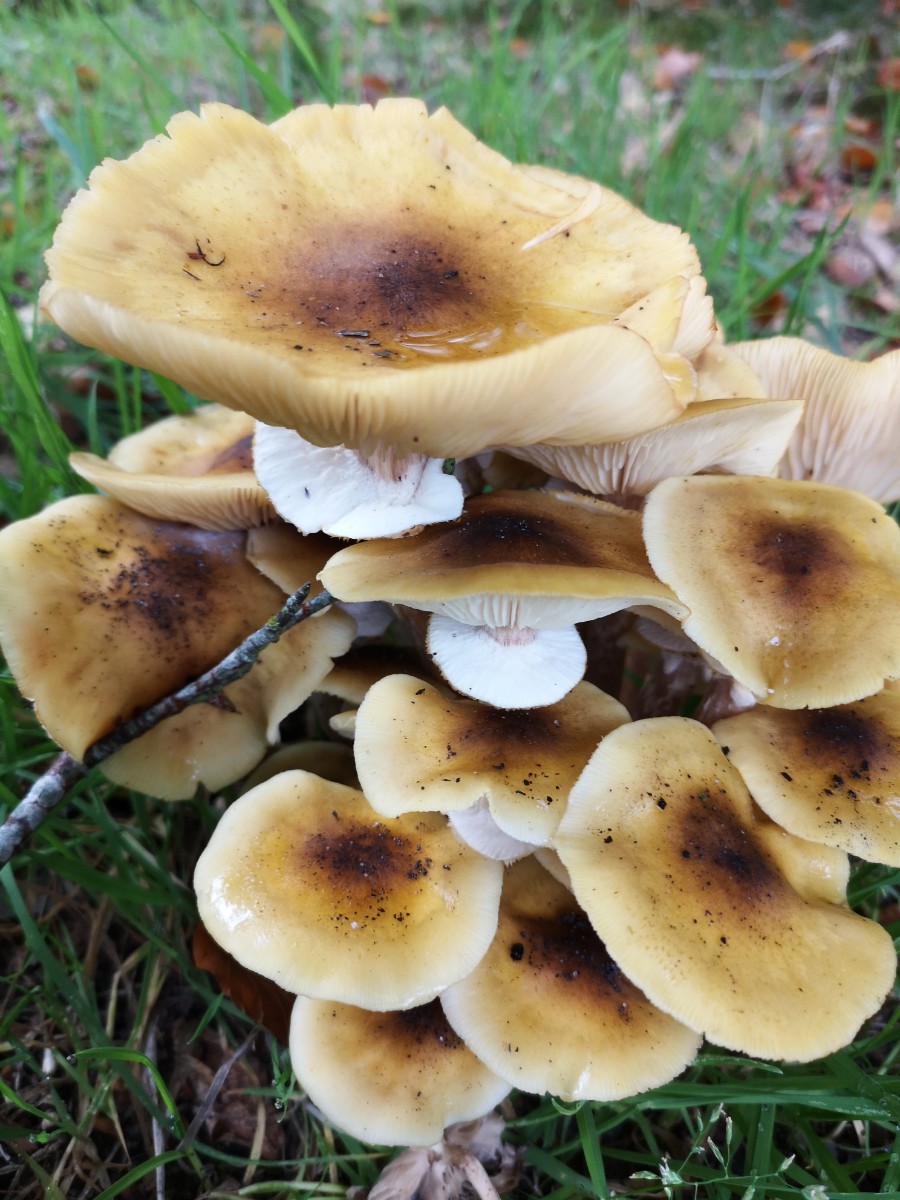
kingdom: Fungi
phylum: Basidiomycota
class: Agaricomycetes
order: Agaricales
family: Physalacriaceae
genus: Armillaria
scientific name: Armillaria mellea
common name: ægte honningsvamp
